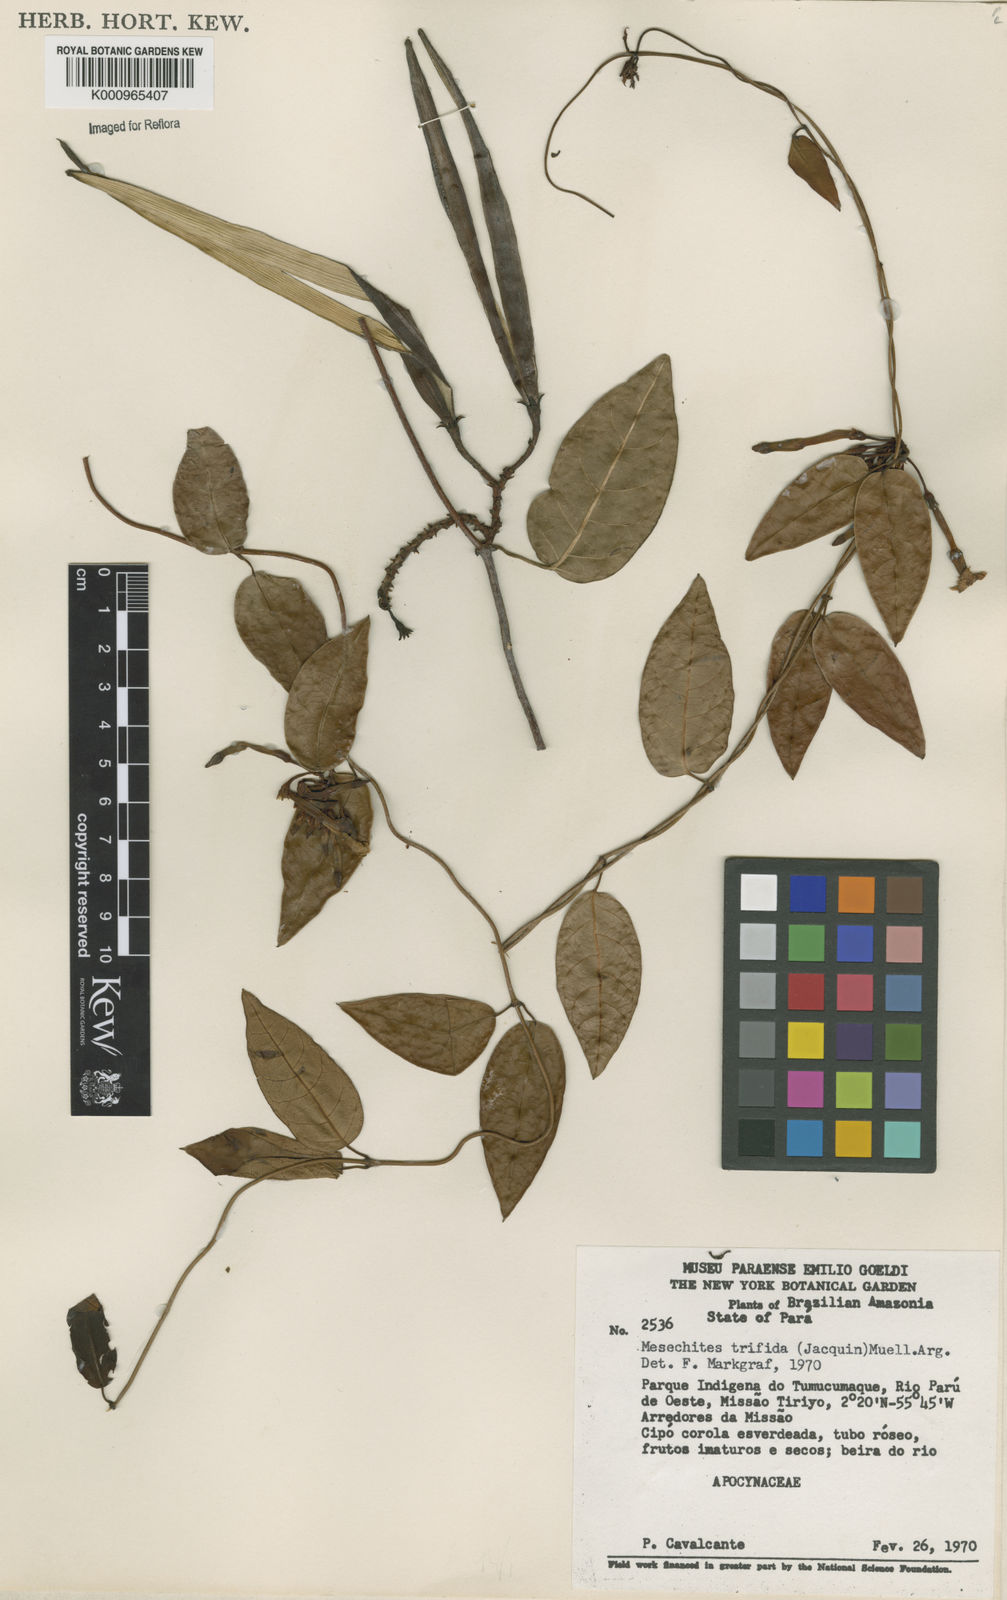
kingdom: Plantae
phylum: Tracheophyta
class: Magnoliopsida
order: Gentianales
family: Apocynaceae
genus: Mesechites
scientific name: Mesechites
